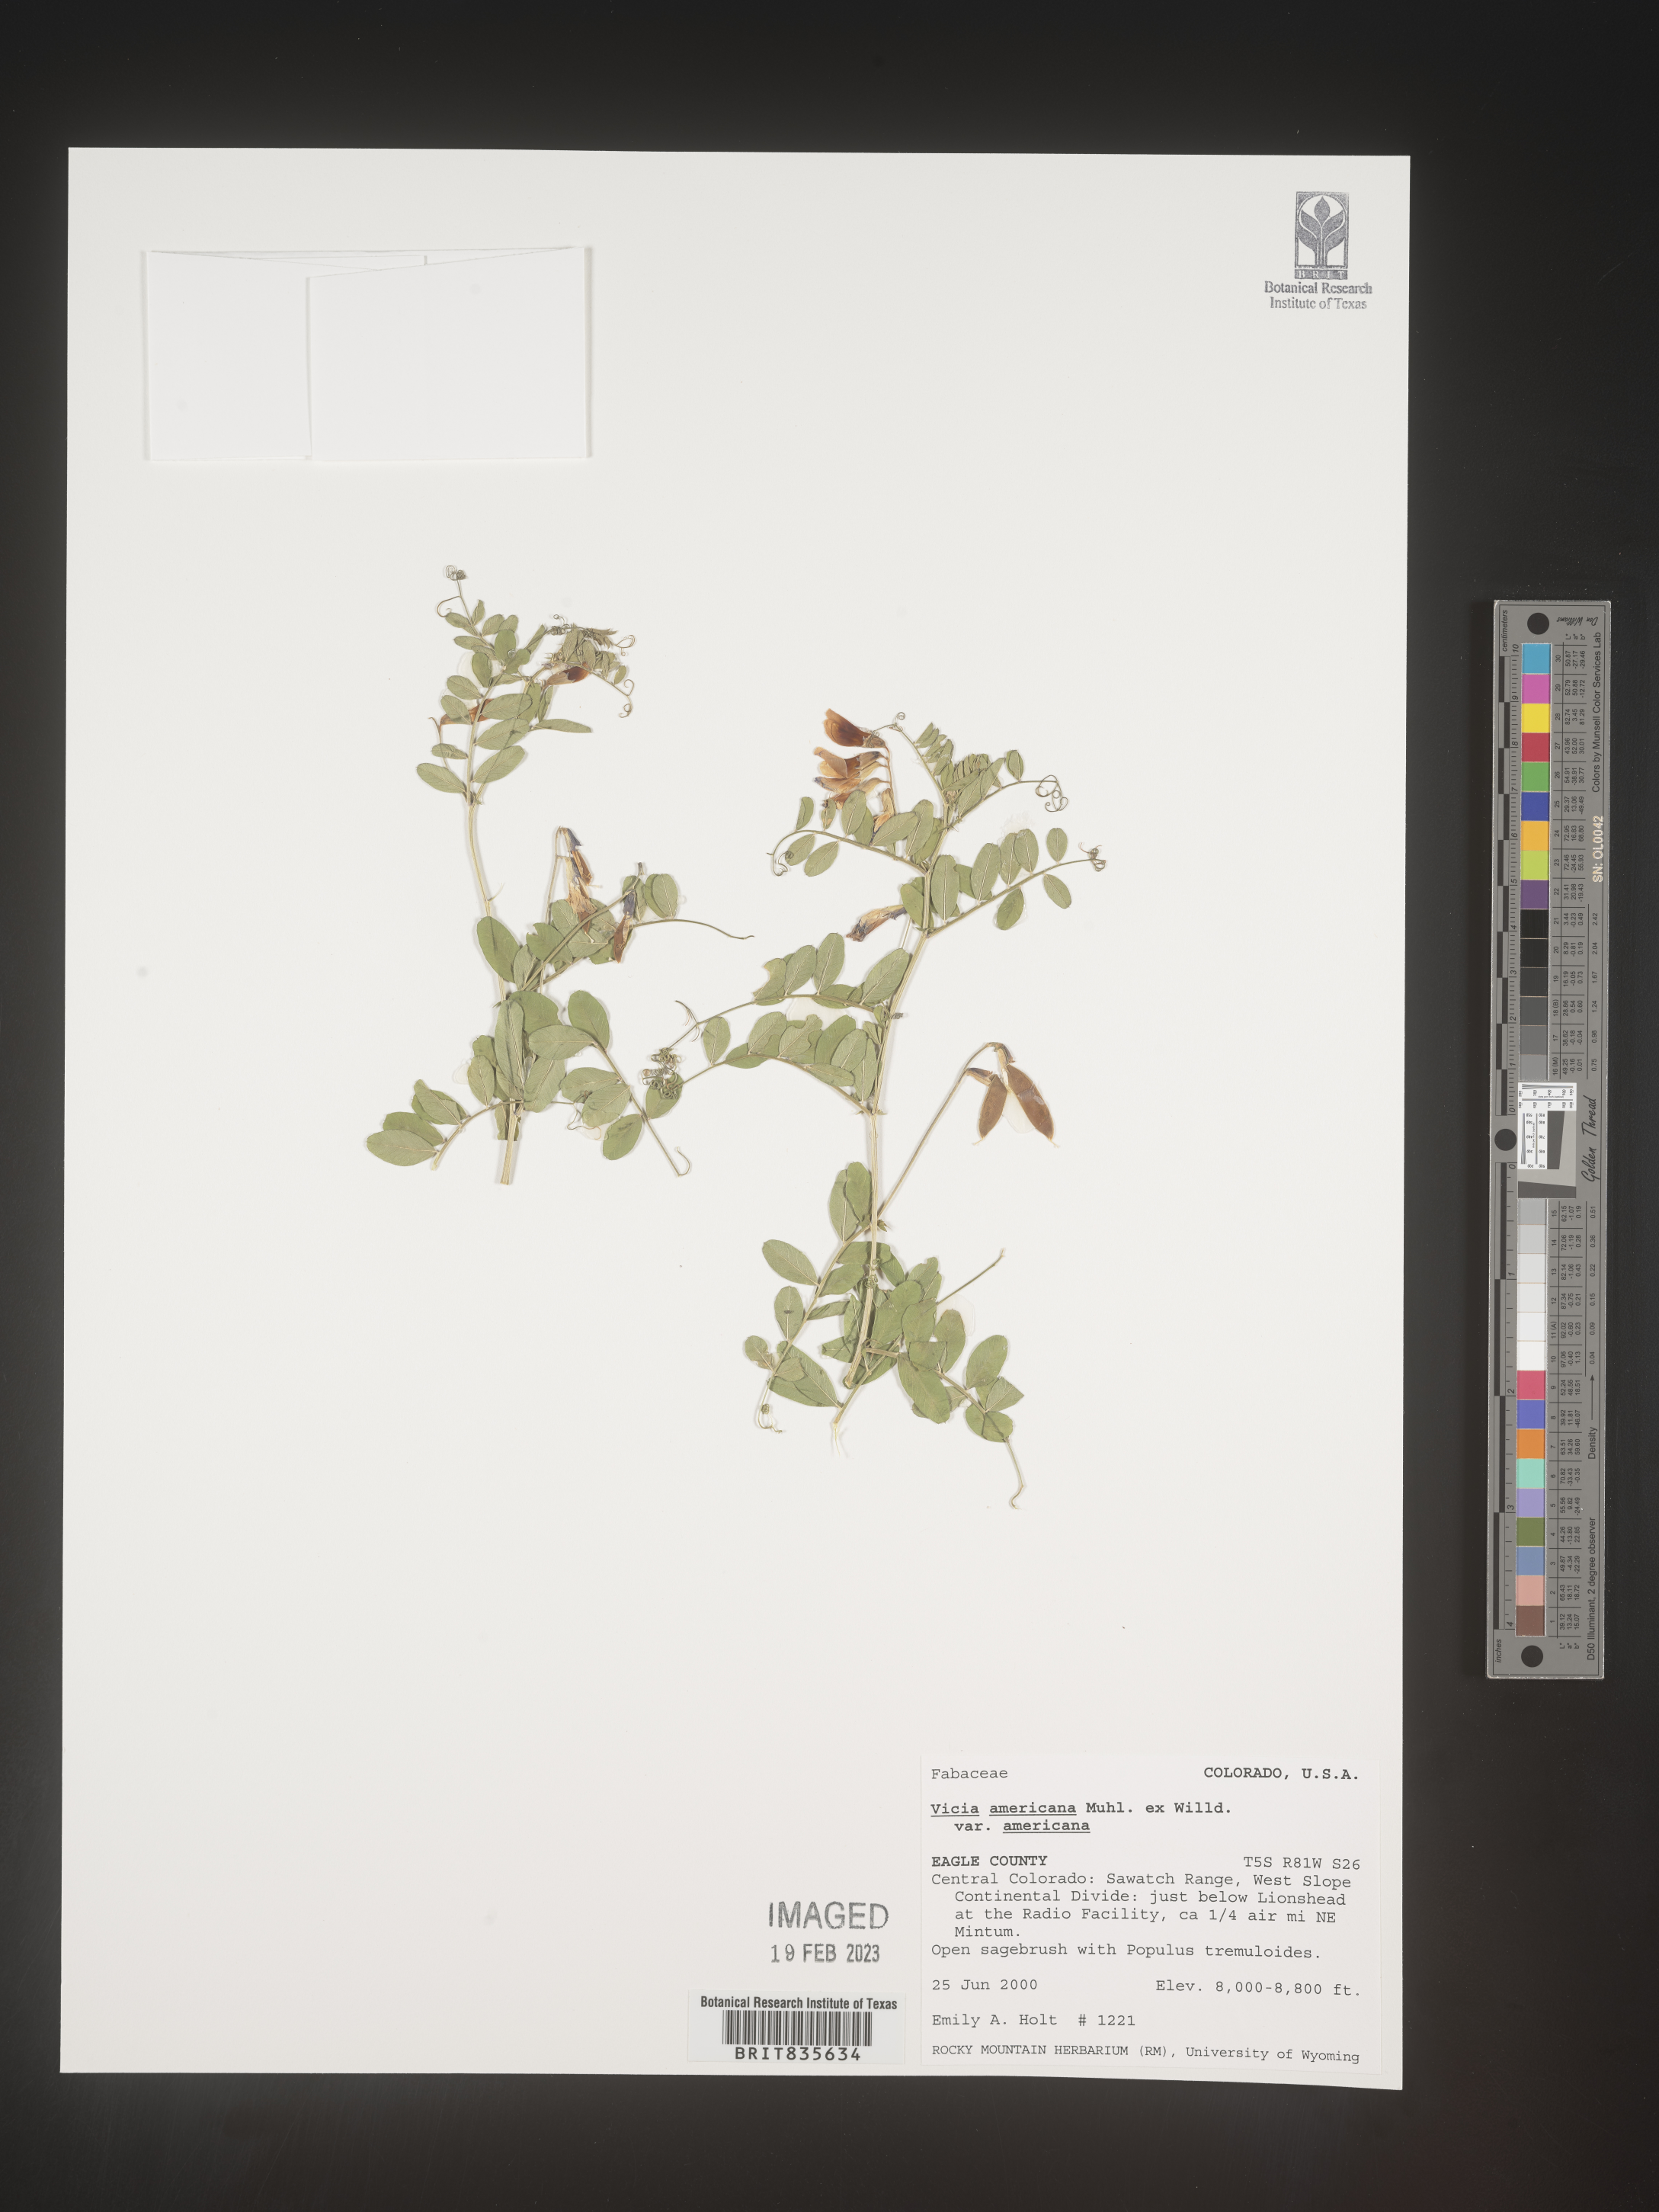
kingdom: Plantae
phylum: Tracheophyta
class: Magnoliopsida
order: Fabales
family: Fabaceae
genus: Vicia
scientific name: Vicia americana
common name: American vetch
